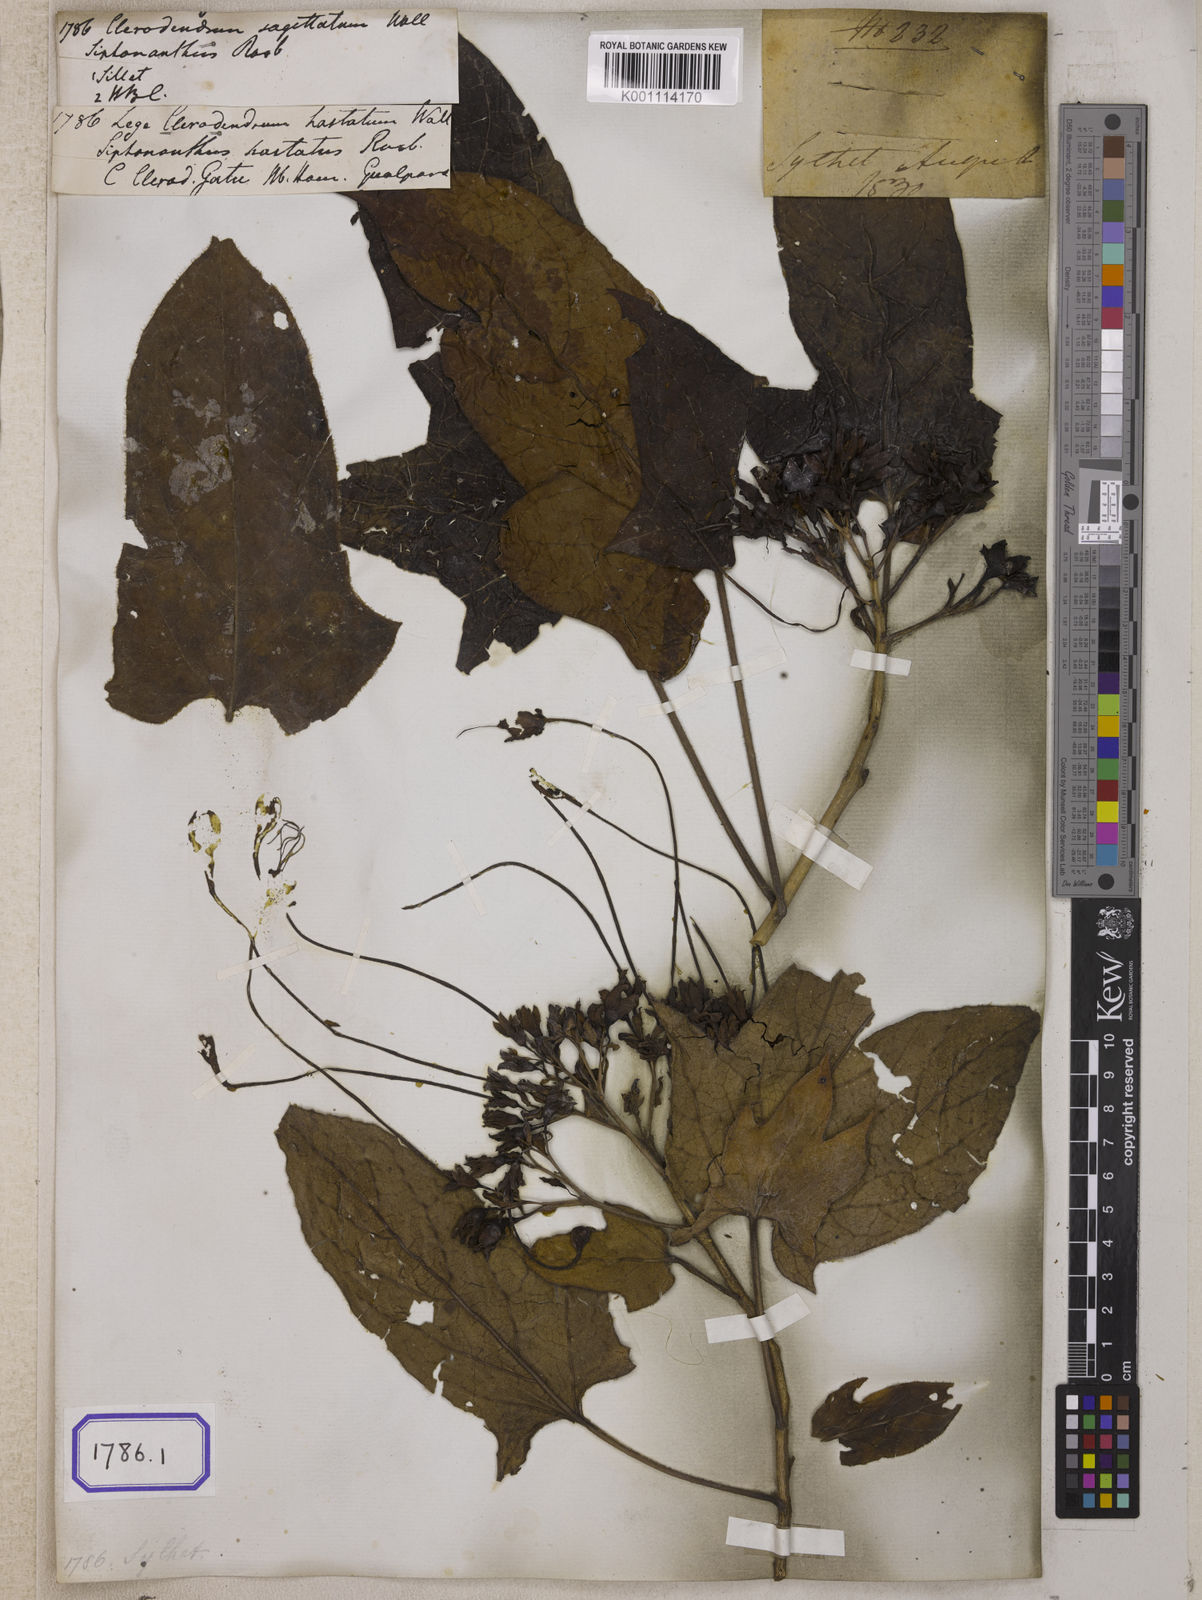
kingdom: Plantae
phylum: Tracheophyta
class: Magnoliopsida
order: Lamiales
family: Lamiaceae
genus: Clerodendrum
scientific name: Clerodendrum
